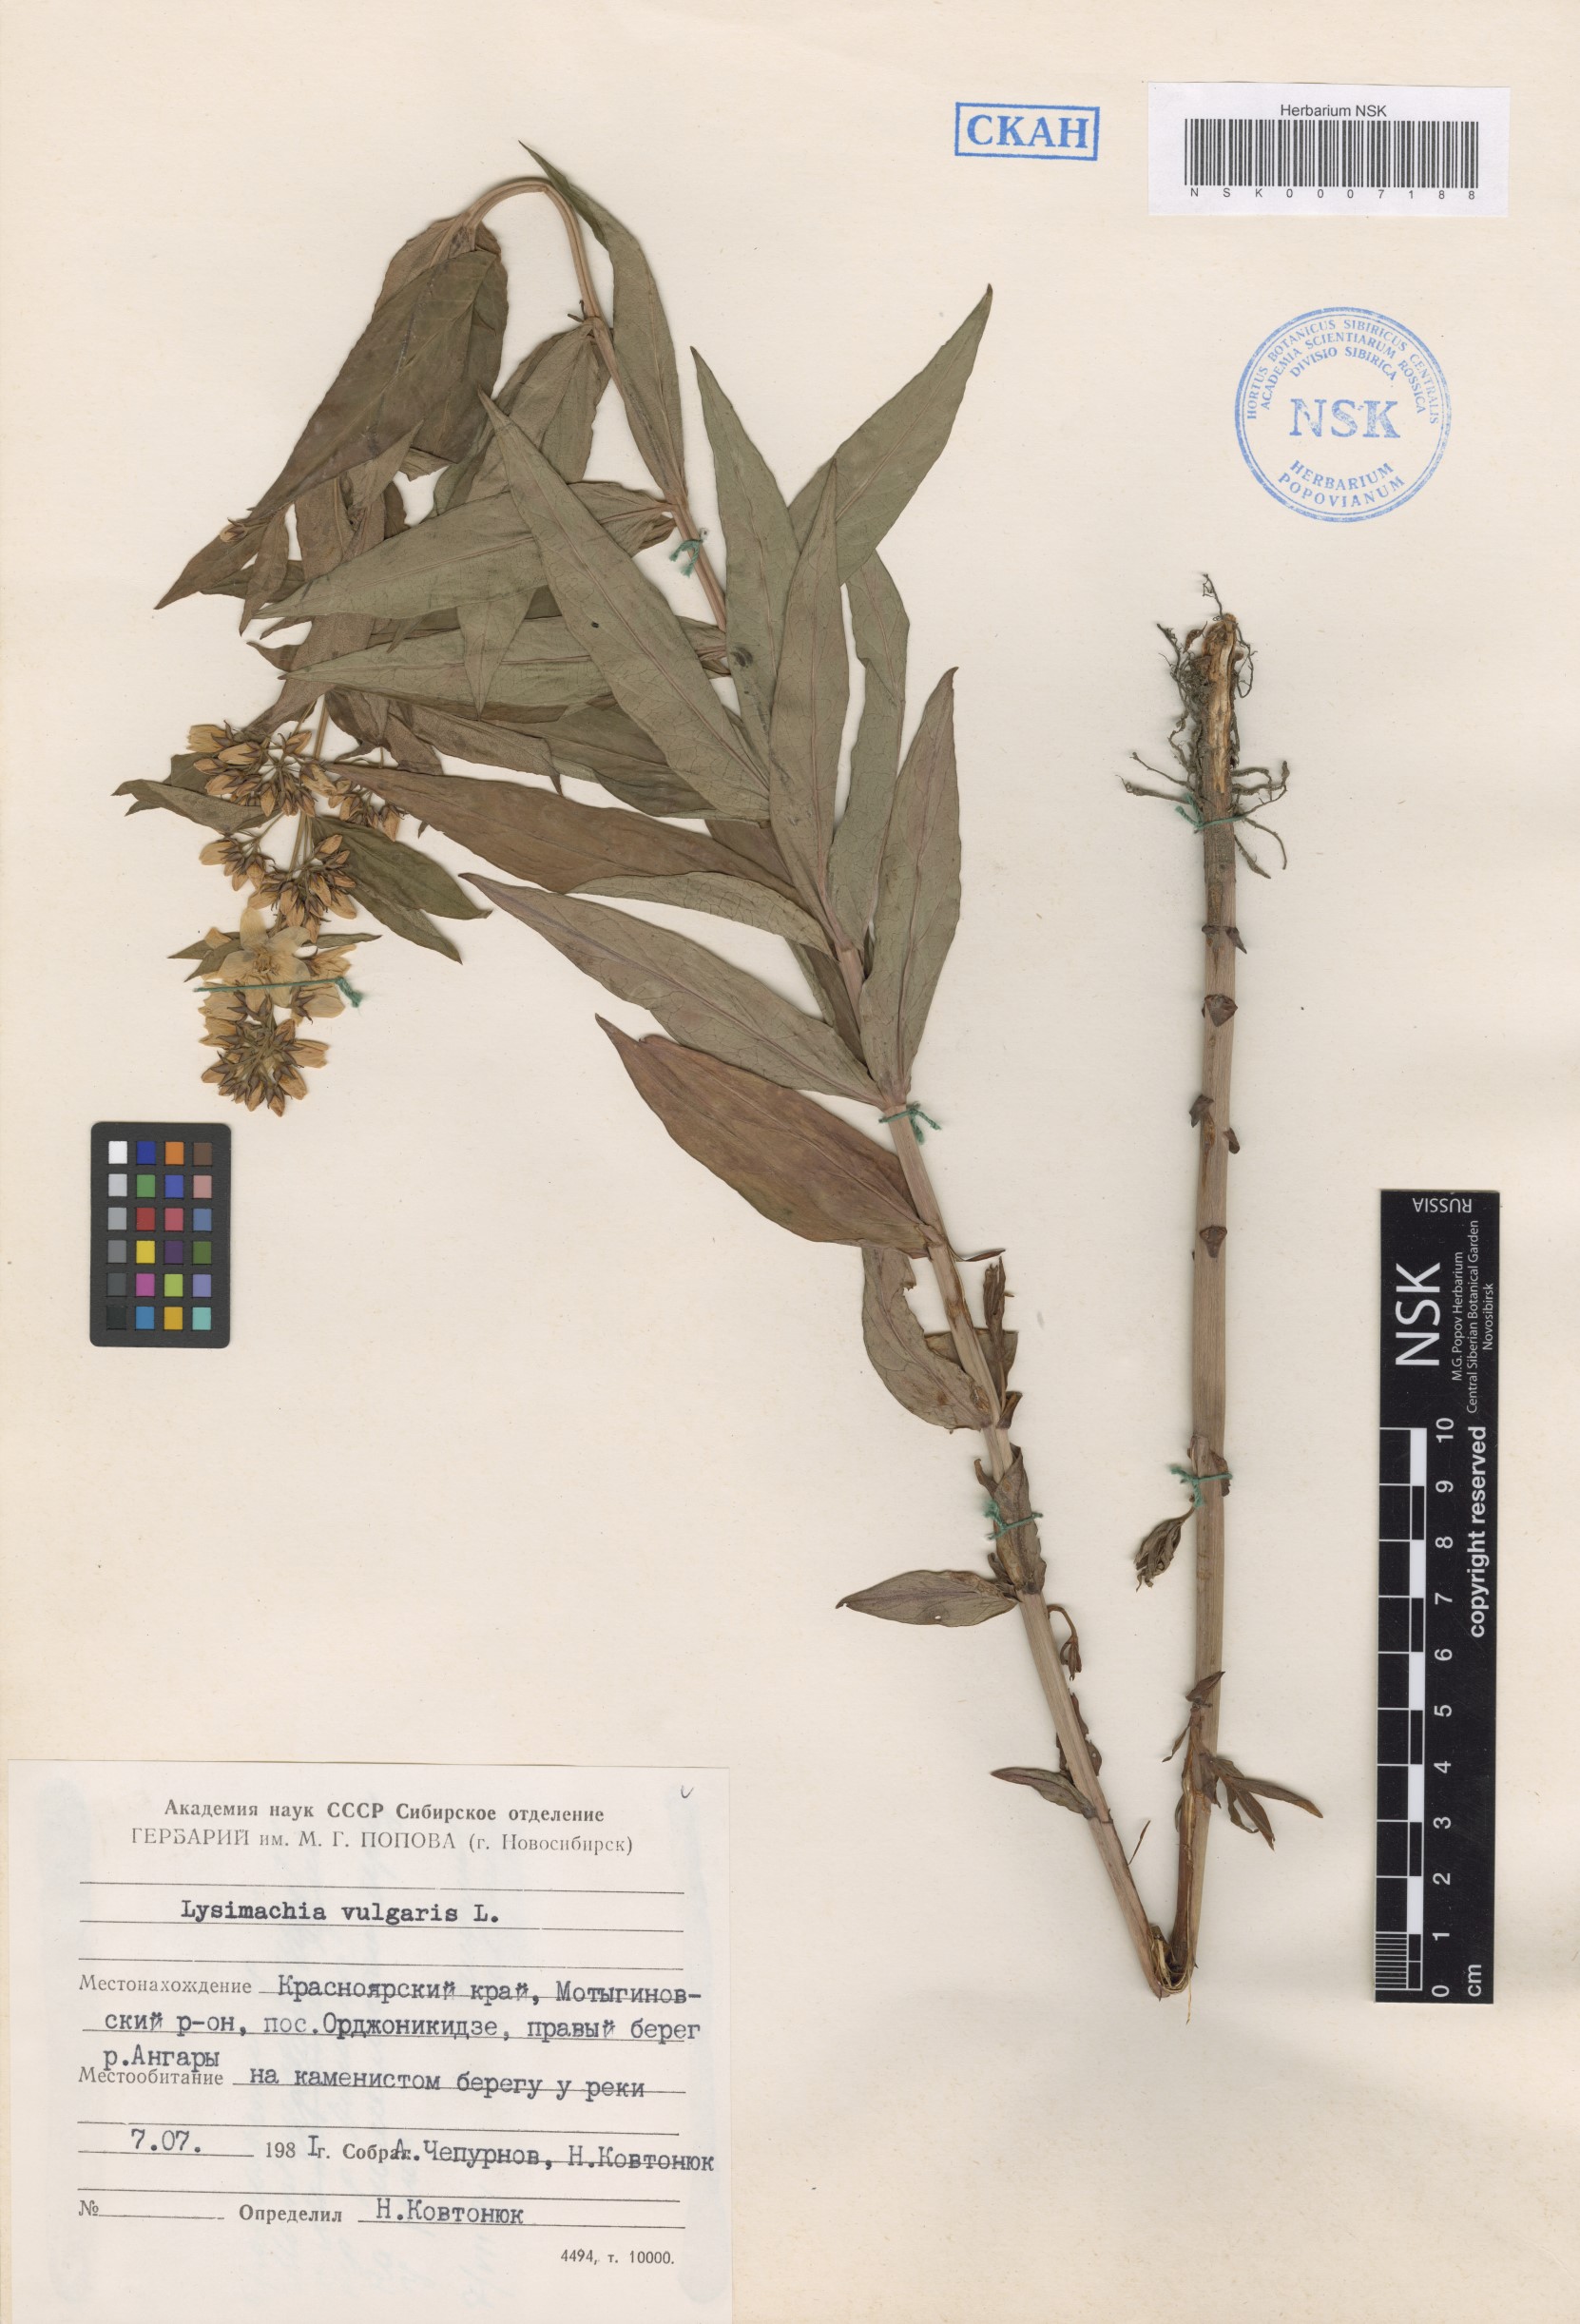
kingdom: Plantae
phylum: Tracheophyta
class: Magnoliopsida
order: Ericales
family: Primulaceae
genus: Lysimachia
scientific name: Lysimachia vulgaris
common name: Yellow loosestrife
